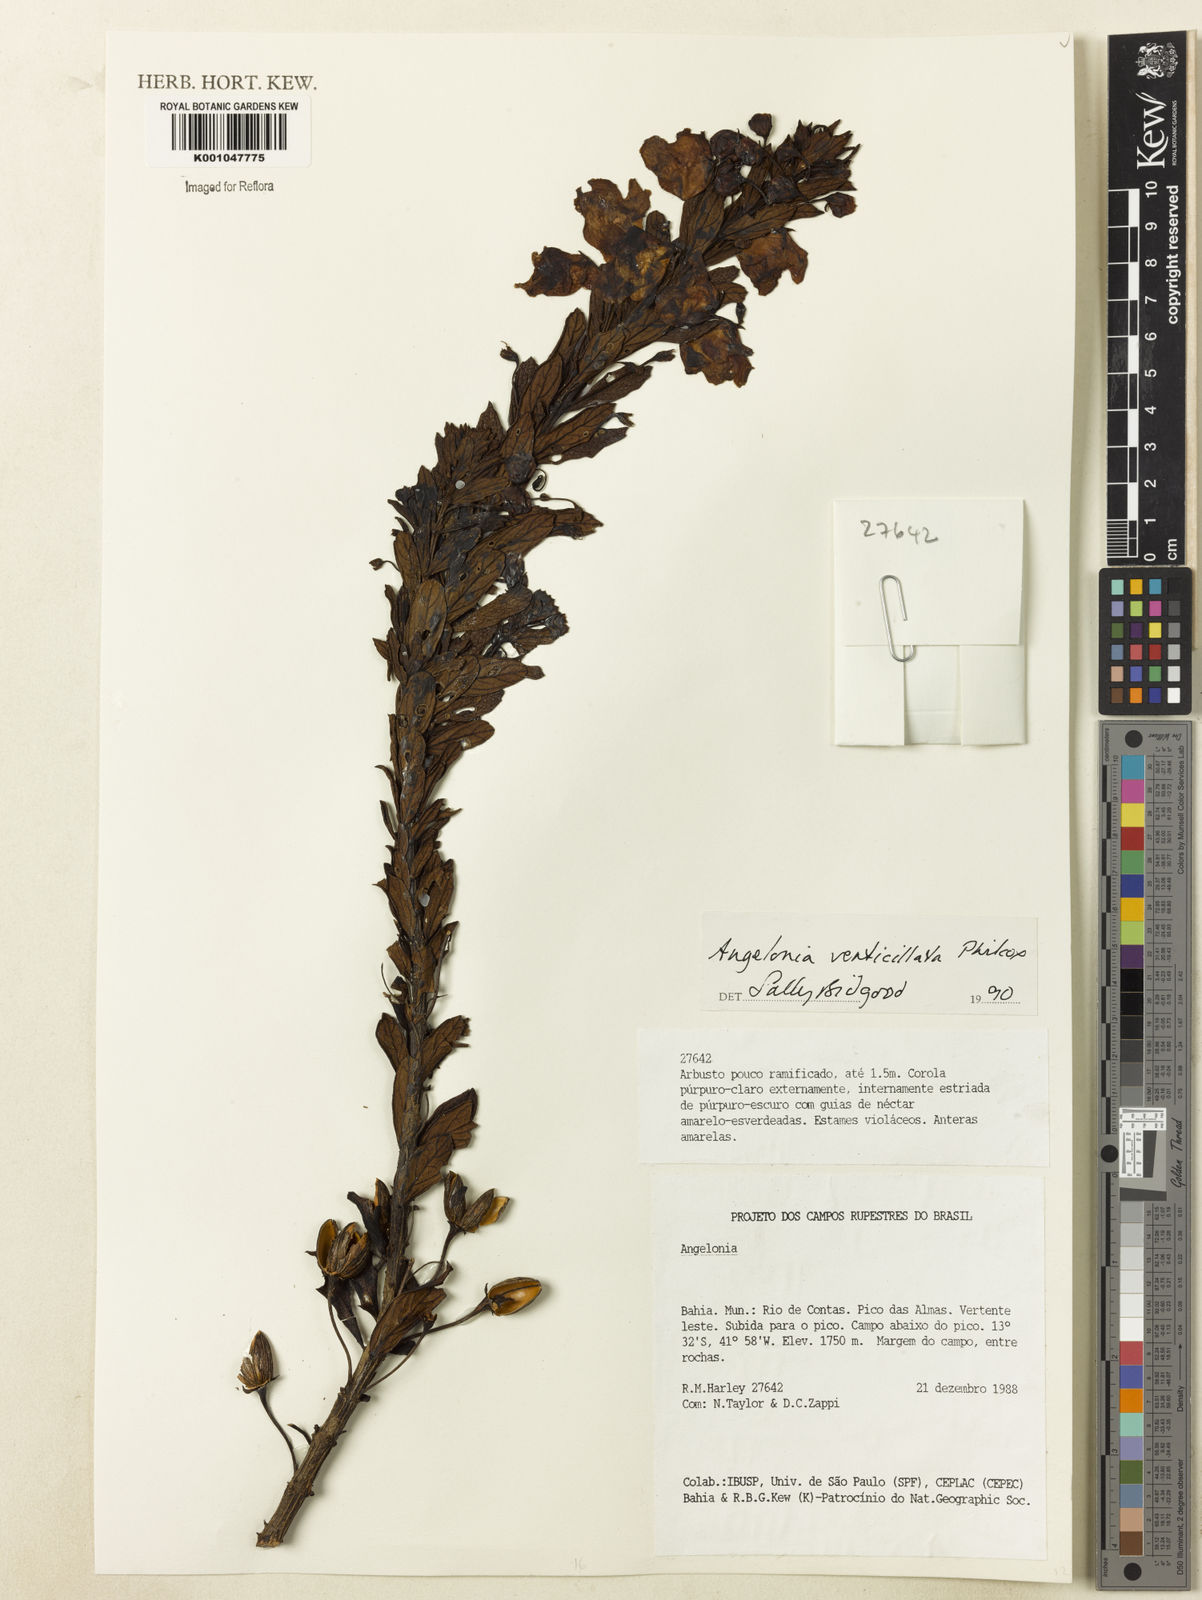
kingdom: Plantae
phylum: Tracheophyta
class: Magnoliopsida
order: Lamiales
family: Plantaginaceae
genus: Angelonia
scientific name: Angelonia verticillata
